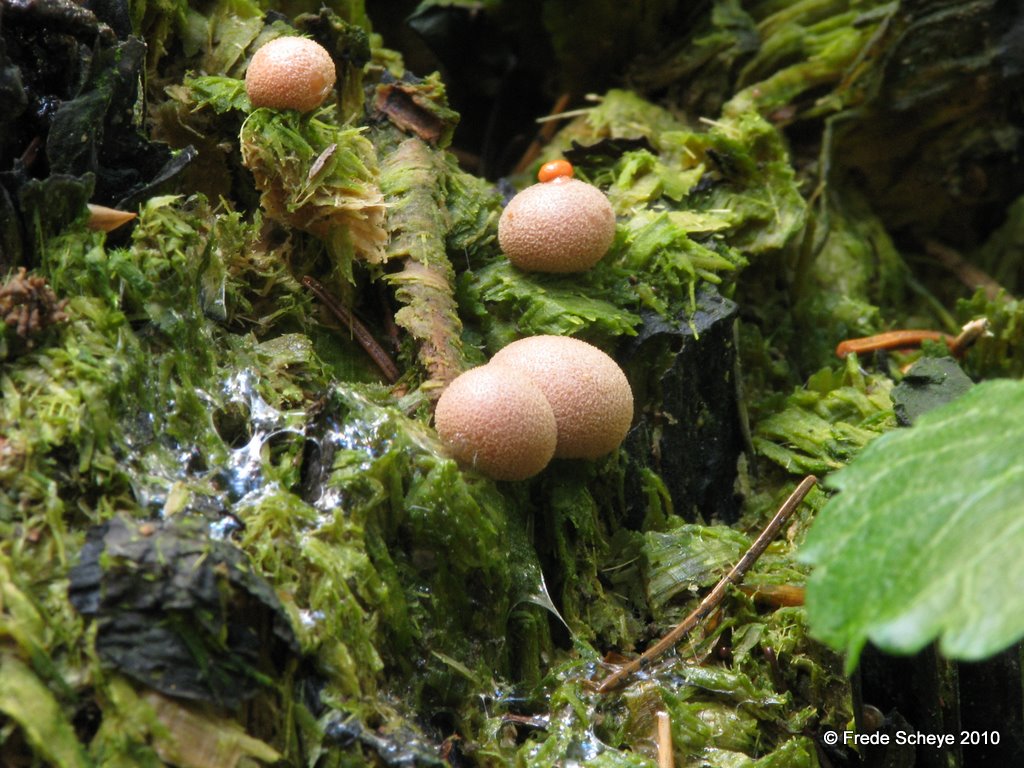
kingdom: Protozoa
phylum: Mycetozoa
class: Myxomycetes
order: Cribrariales
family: Tubiferaceae
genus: Lycogala
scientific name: Lycogala epidendrum
